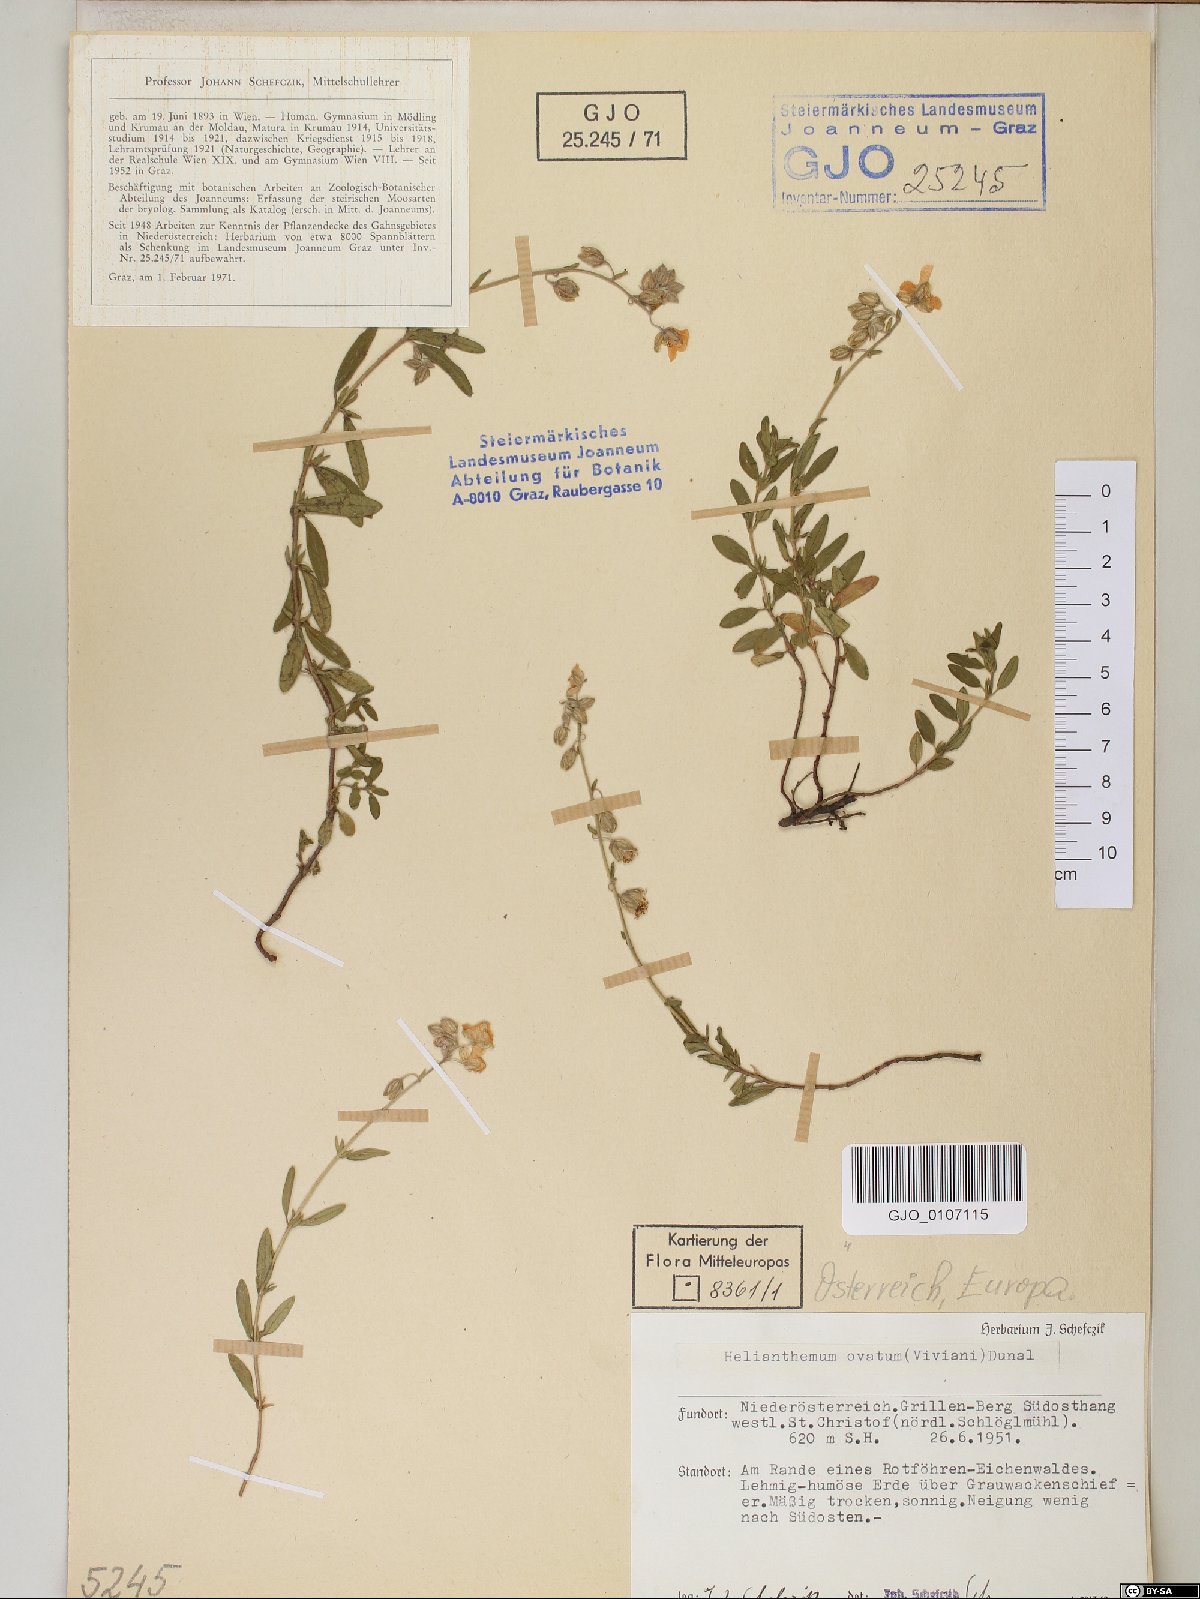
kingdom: Plantae
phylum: Tracheophyta
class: Magnoliopsida
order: Malvales
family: Cistaceae
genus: Helianthemum
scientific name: Helianthemum nummularium
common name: Common rock-rose
